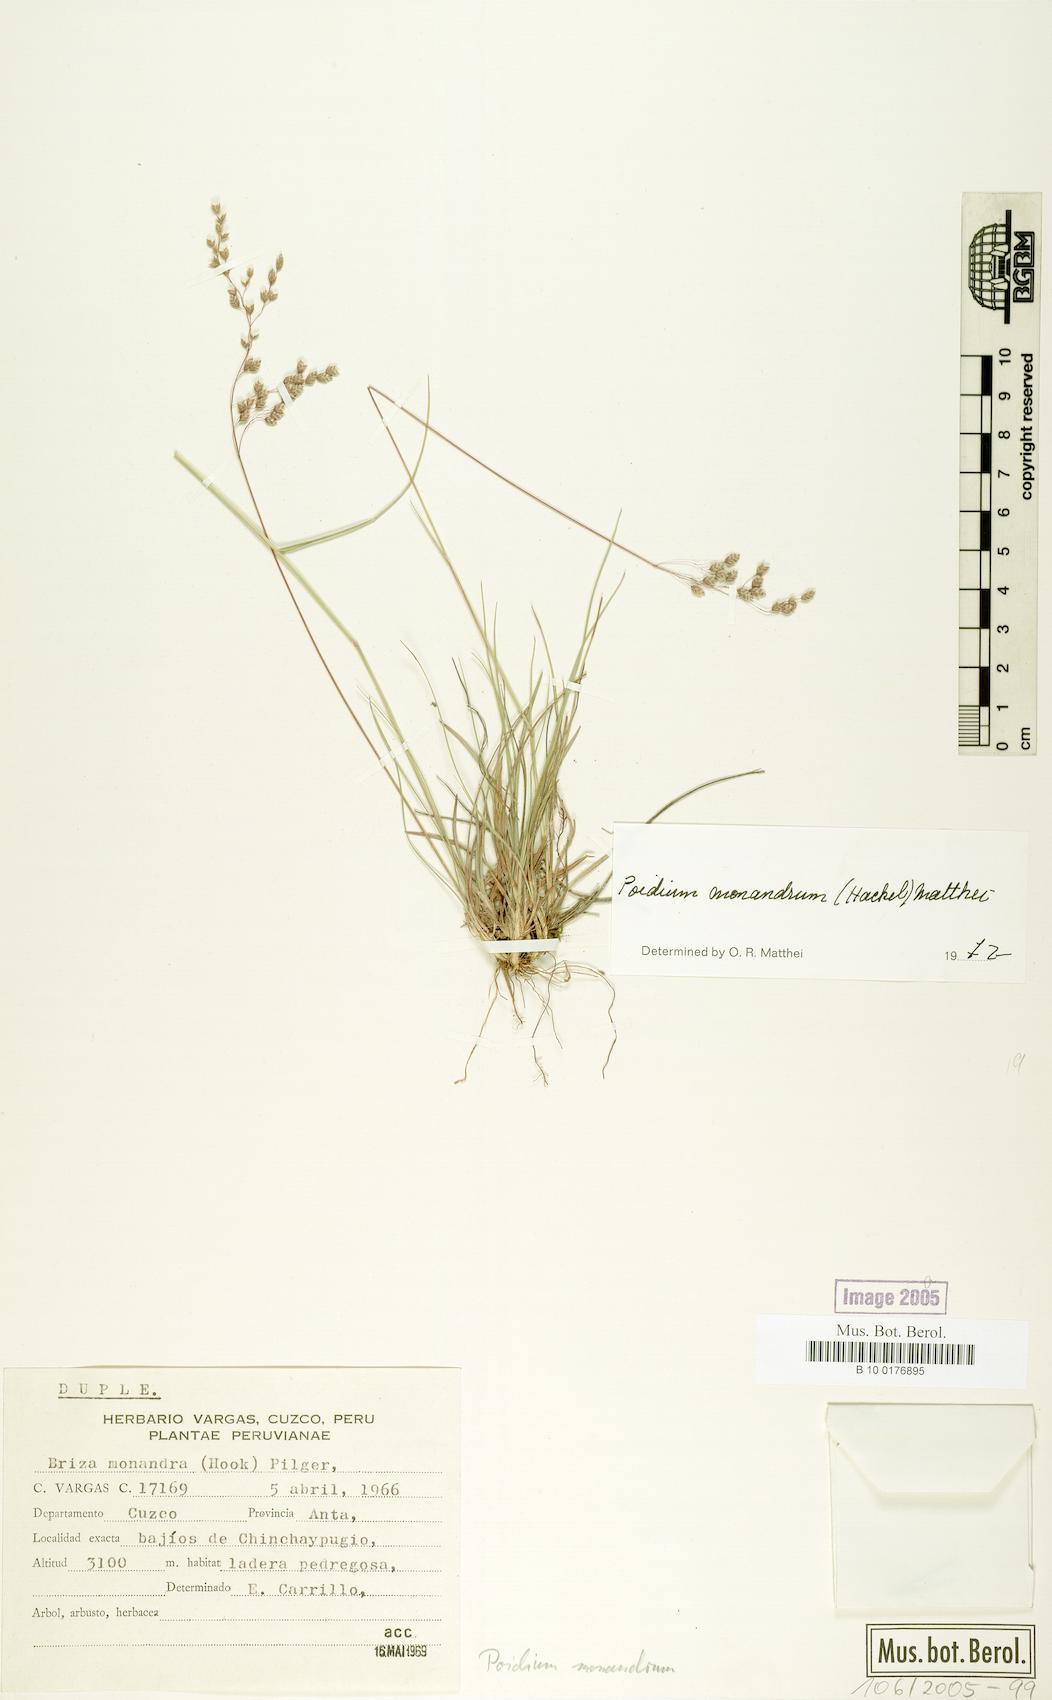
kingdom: Plantae
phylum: Tracheophyta
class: Liliopsida
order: Poales
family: Poaceae
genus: Poidium
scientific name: Poidium monandrum
